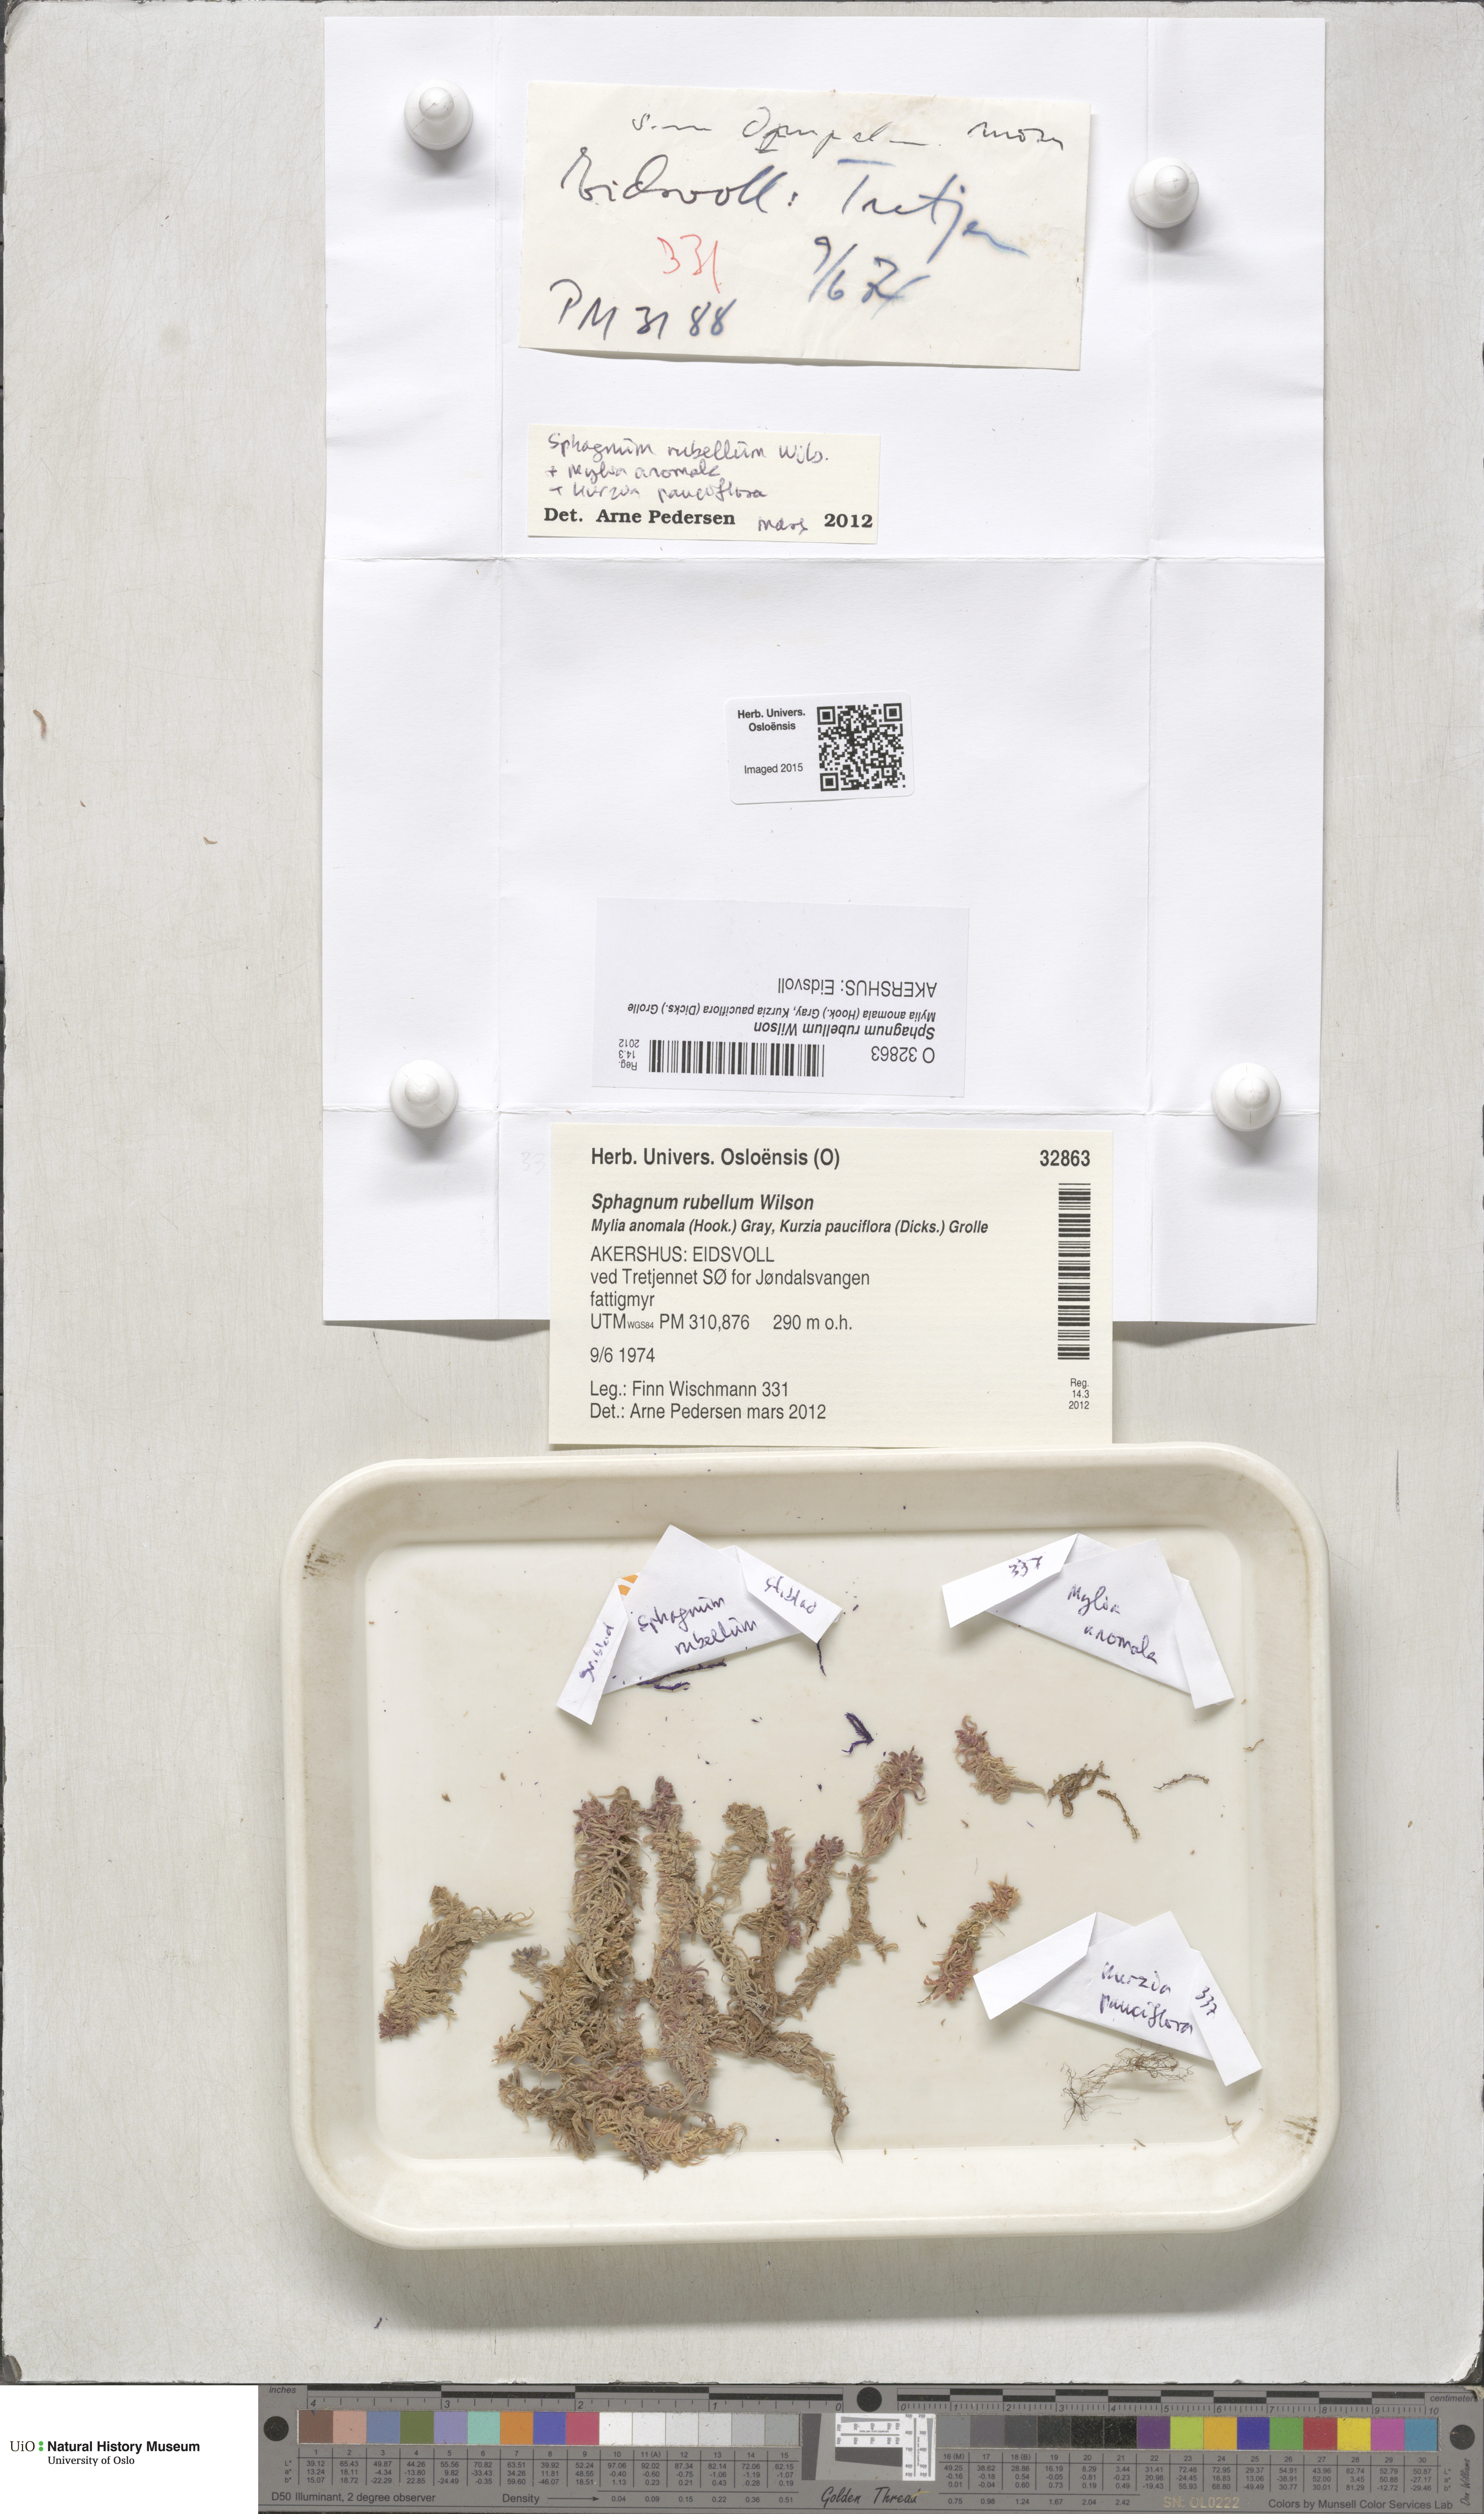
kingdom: Plantae
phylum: Bryophyta
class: Sphagnopsida
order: Sphagnales
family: Sphagnaceae
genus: Sphagnum
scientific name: Sphagnum rubellum
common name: Red peat moss
